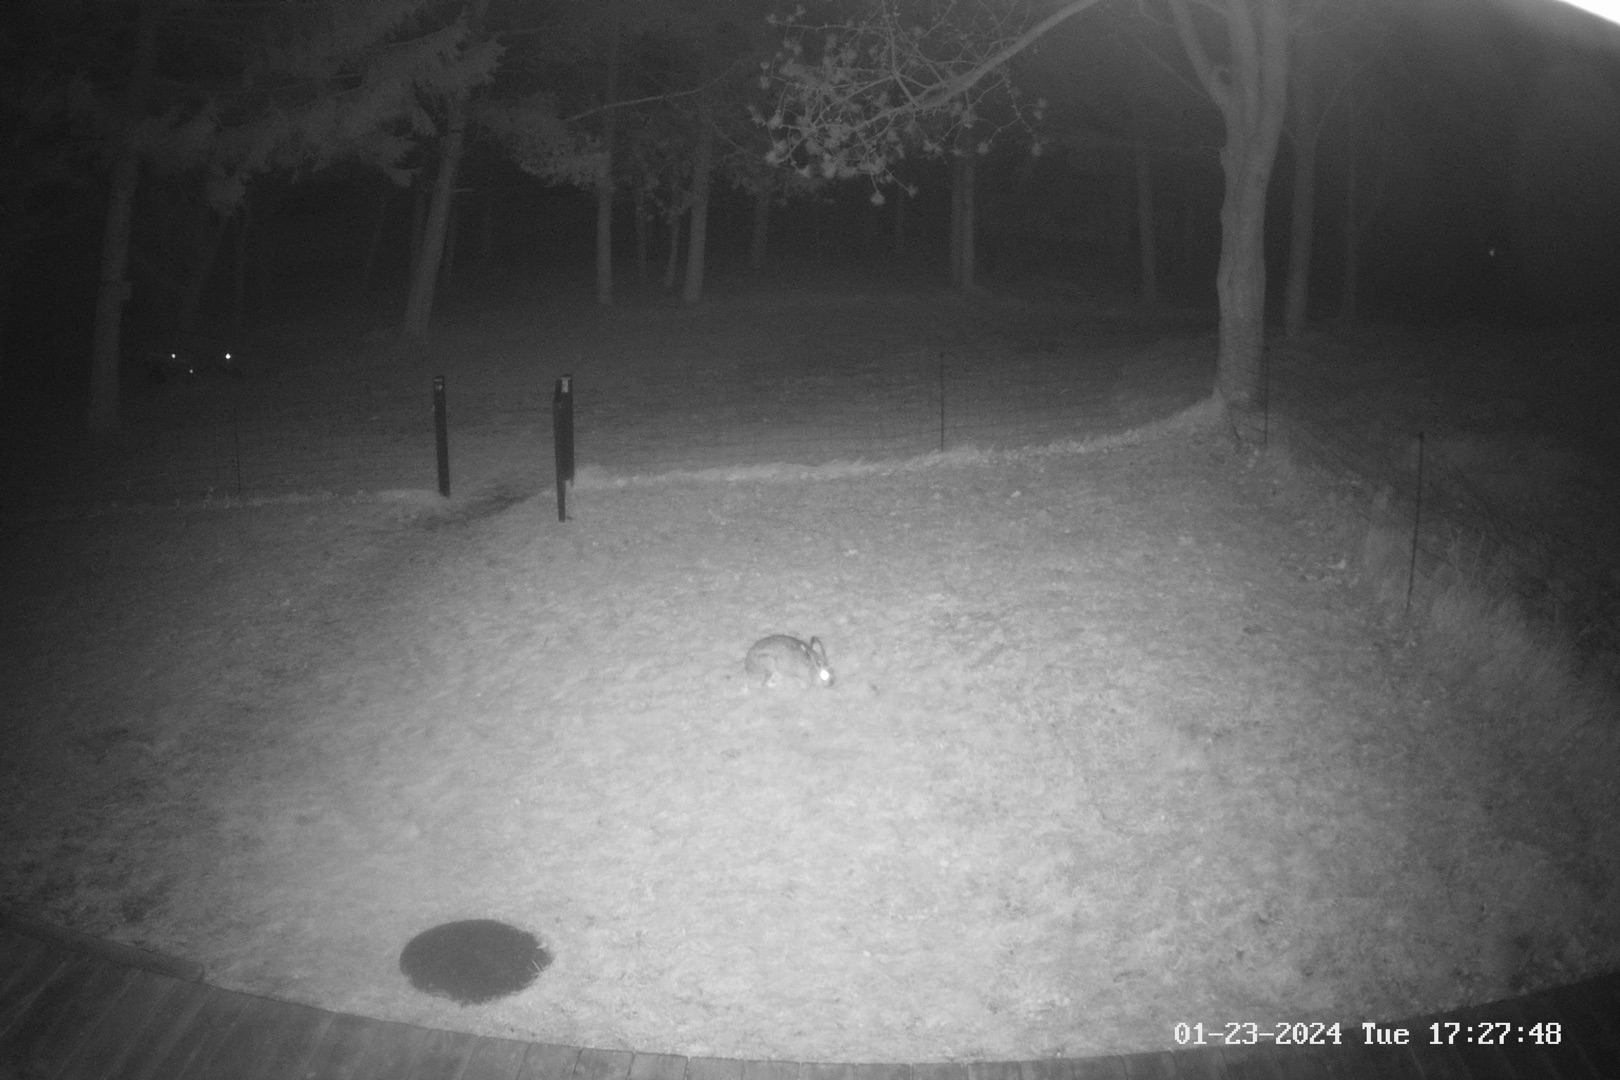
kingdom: Animalia
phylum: Chordata
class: Mammalia
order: Lagomorpha
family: Leporidae
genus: Lepus
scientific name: Lepus europaeus
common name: Hare
